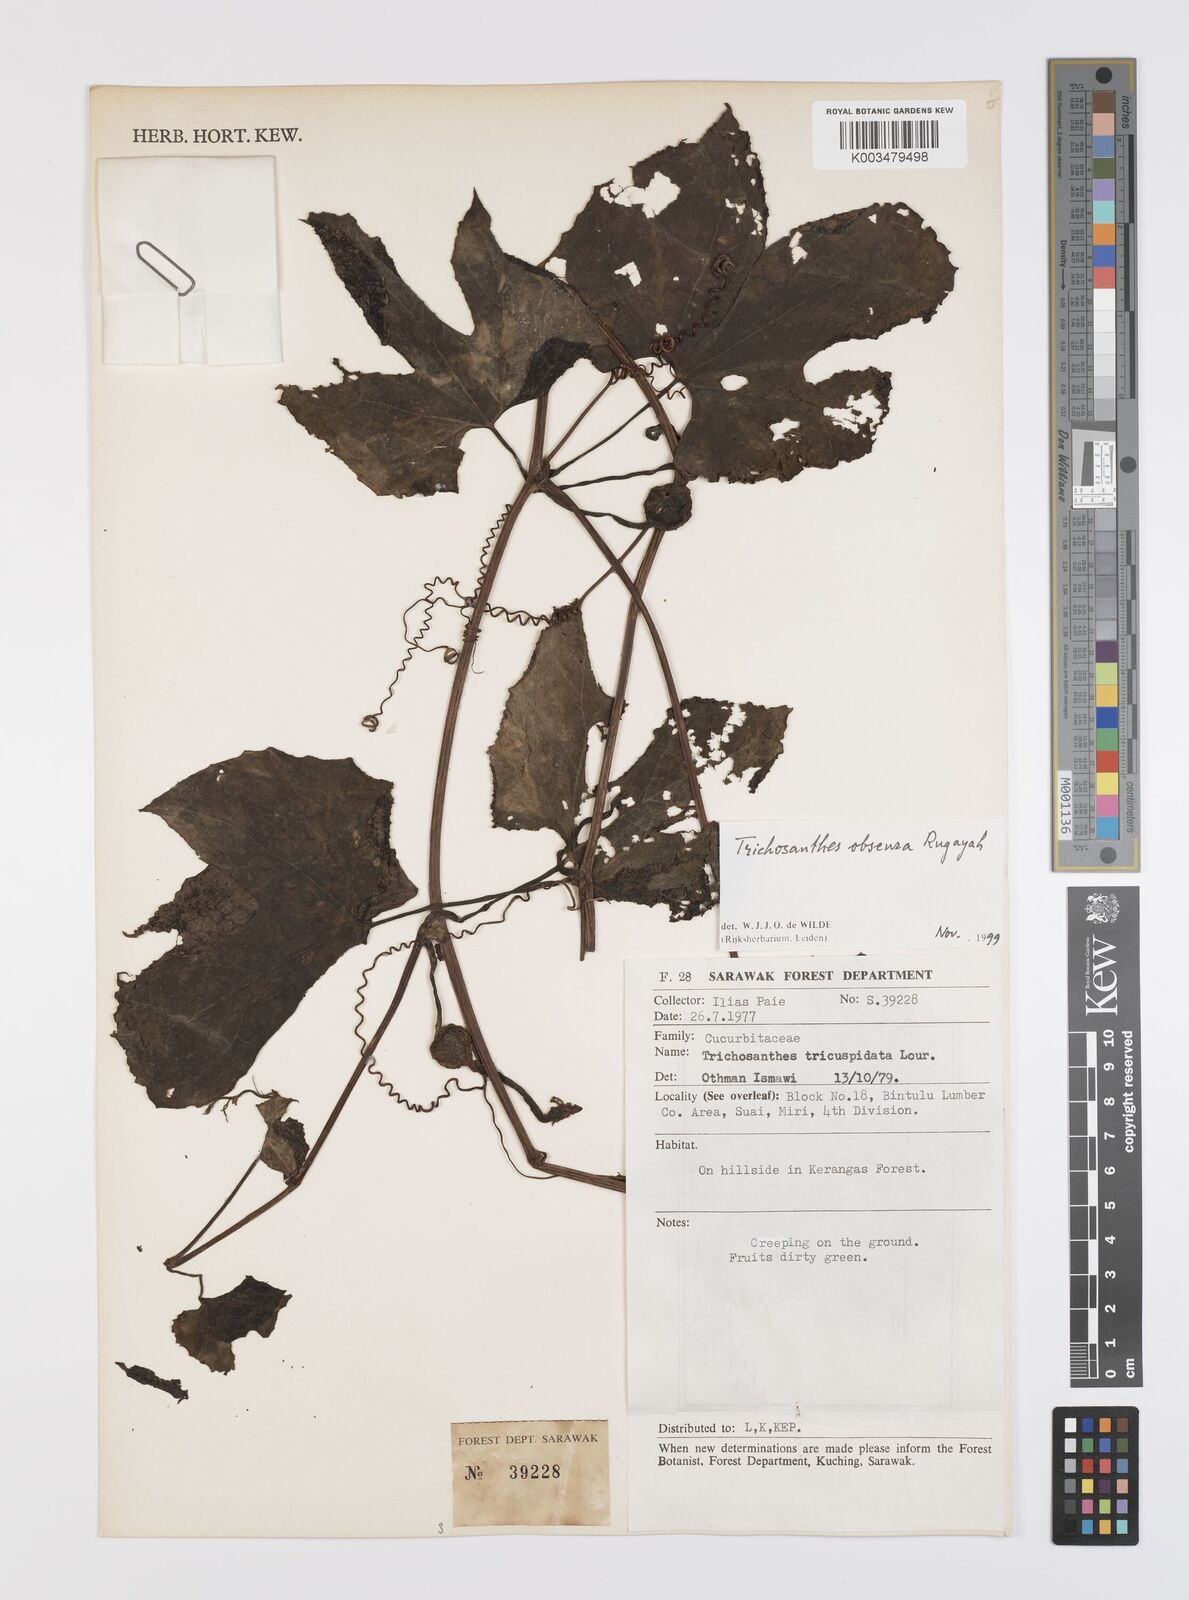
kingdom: Plantae
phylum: Tracheophyta
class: Magnoliopsida
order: Cucurbitales
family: Cucurbitaceae
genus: Trichosanthes
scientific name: Trichosanthes obscura
